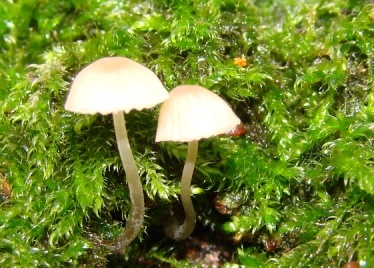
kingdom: Fungi
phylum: Basidiomycota
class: Agaricomycetes
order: Agaricales
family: Mycenaceae
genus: Mycena
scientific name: Mycena erubescens
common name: galde-huesvamp
